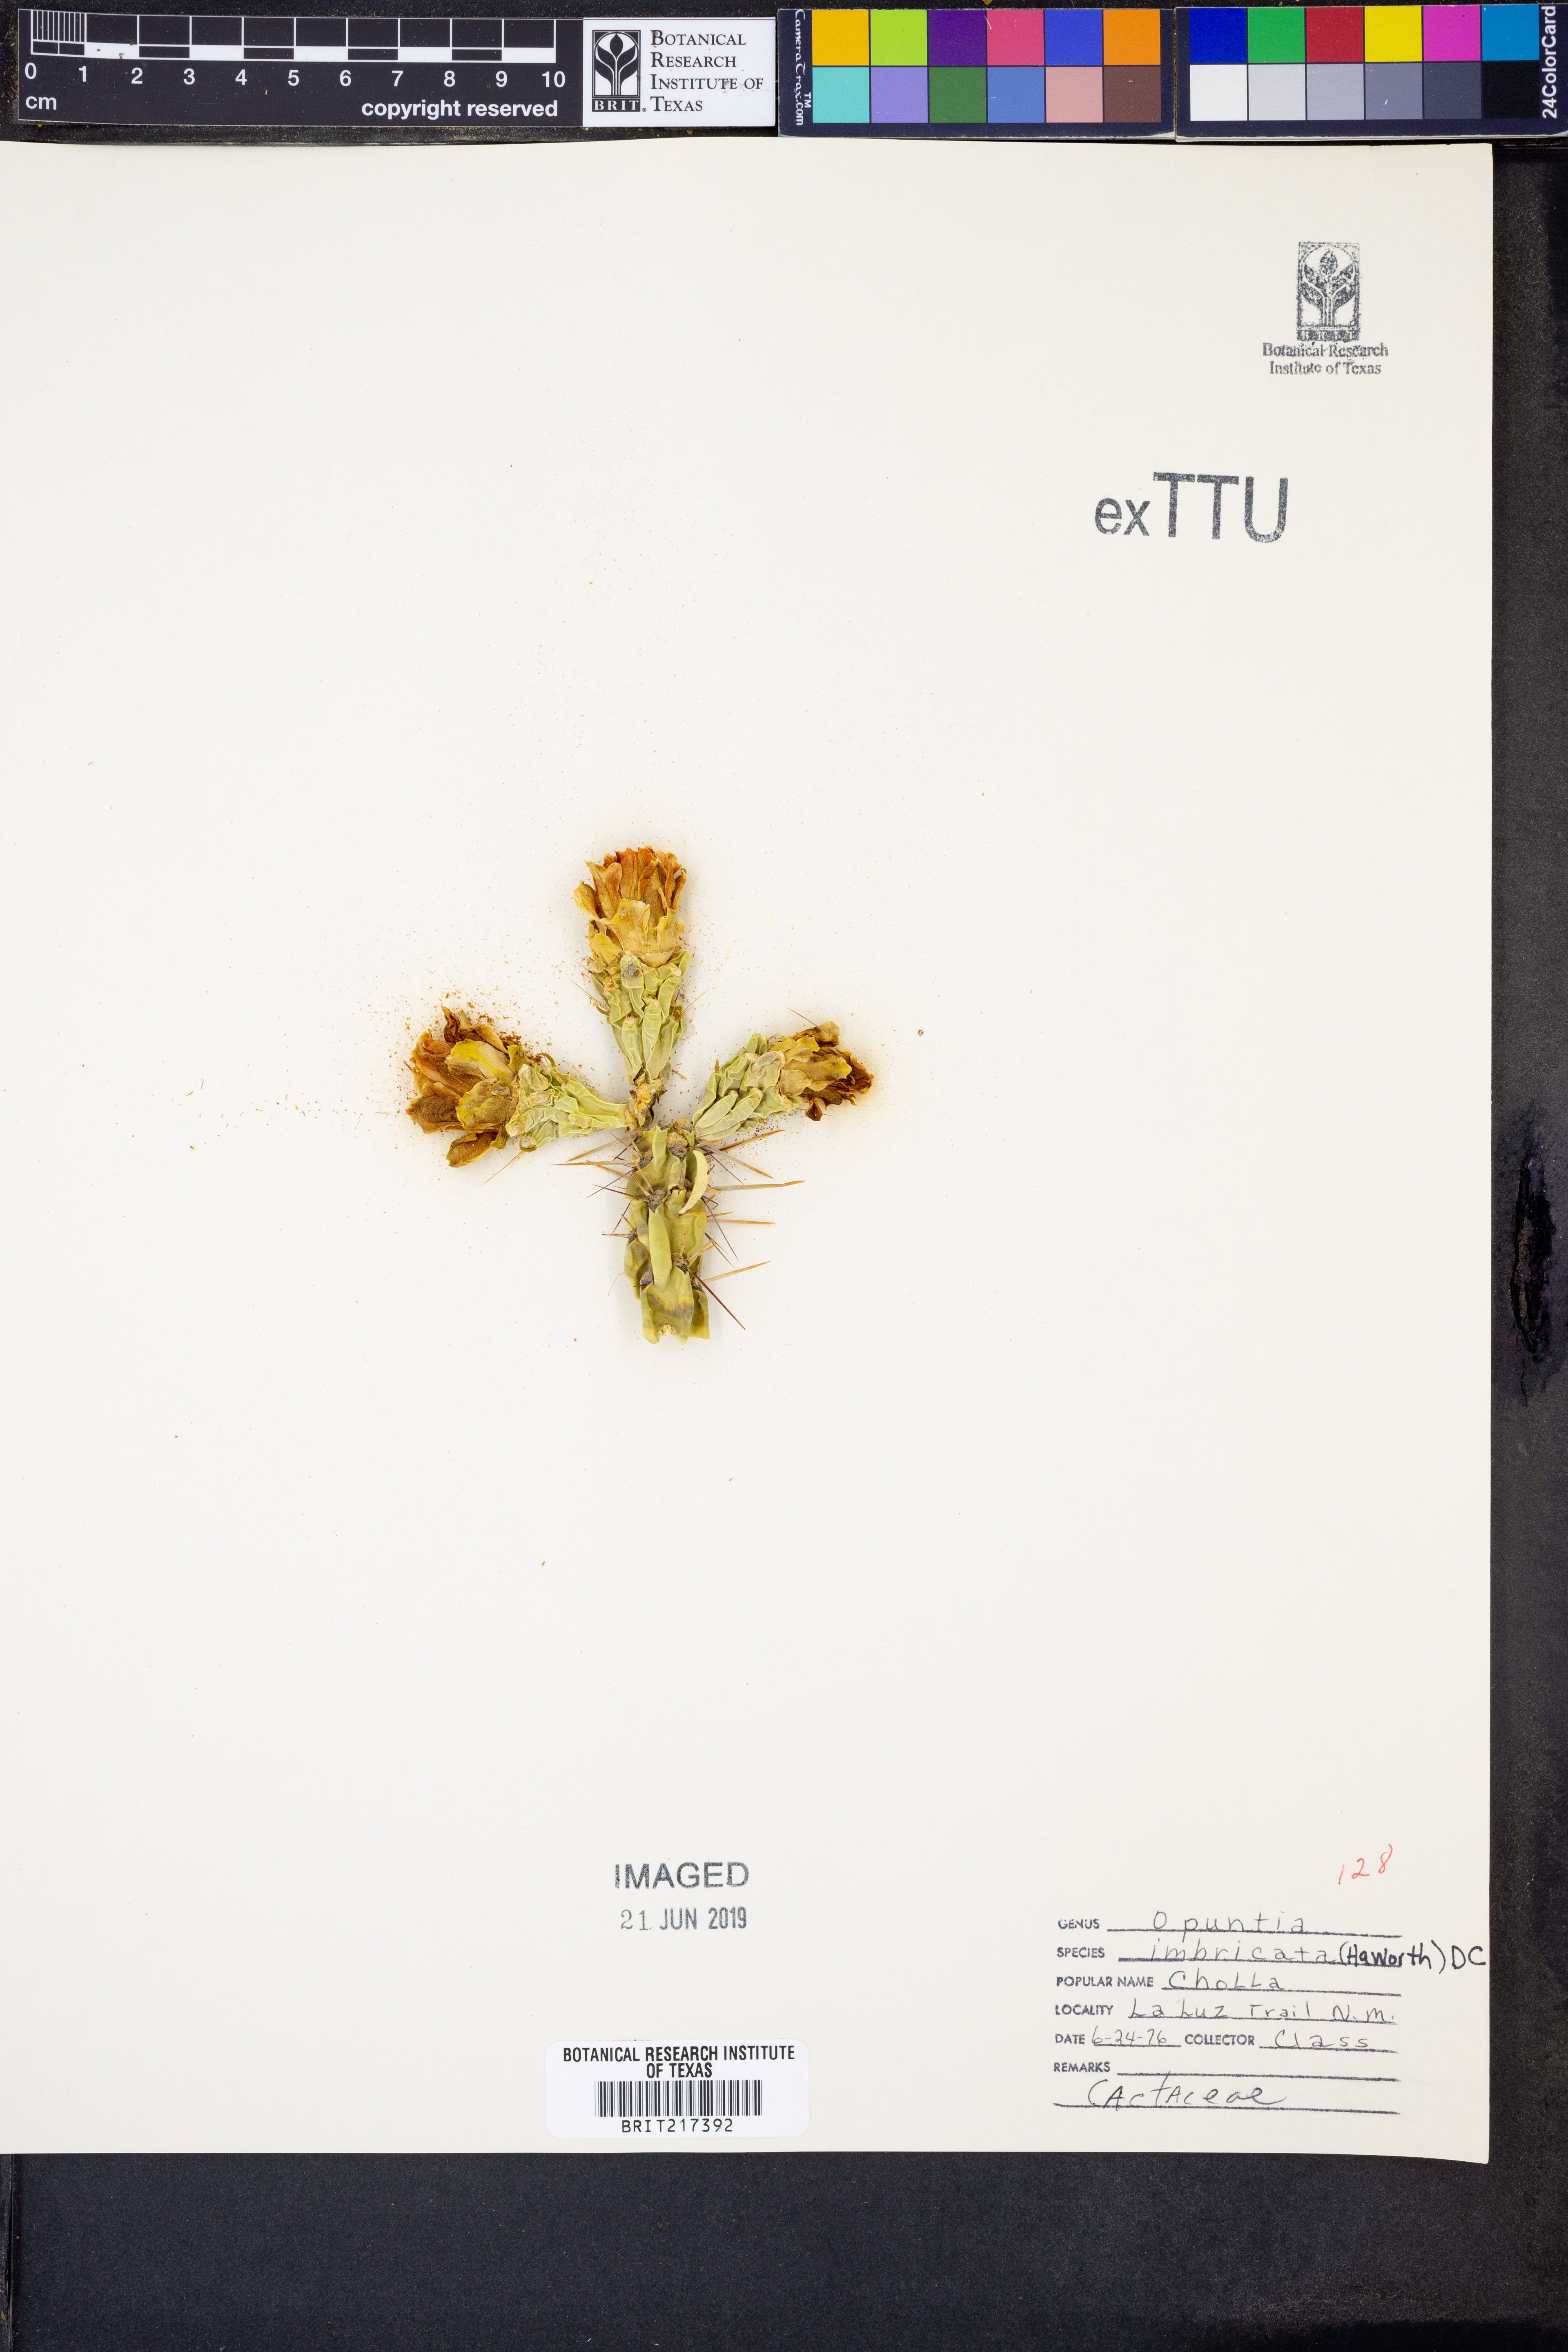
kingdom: Plantae
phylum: Tracheophyta
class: Magnoliopsida
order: Caryophyllales
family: Cactaceae
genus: Cylindropuntia
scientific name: Cylindropuntia imbricata
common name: Candelabrum cactus
